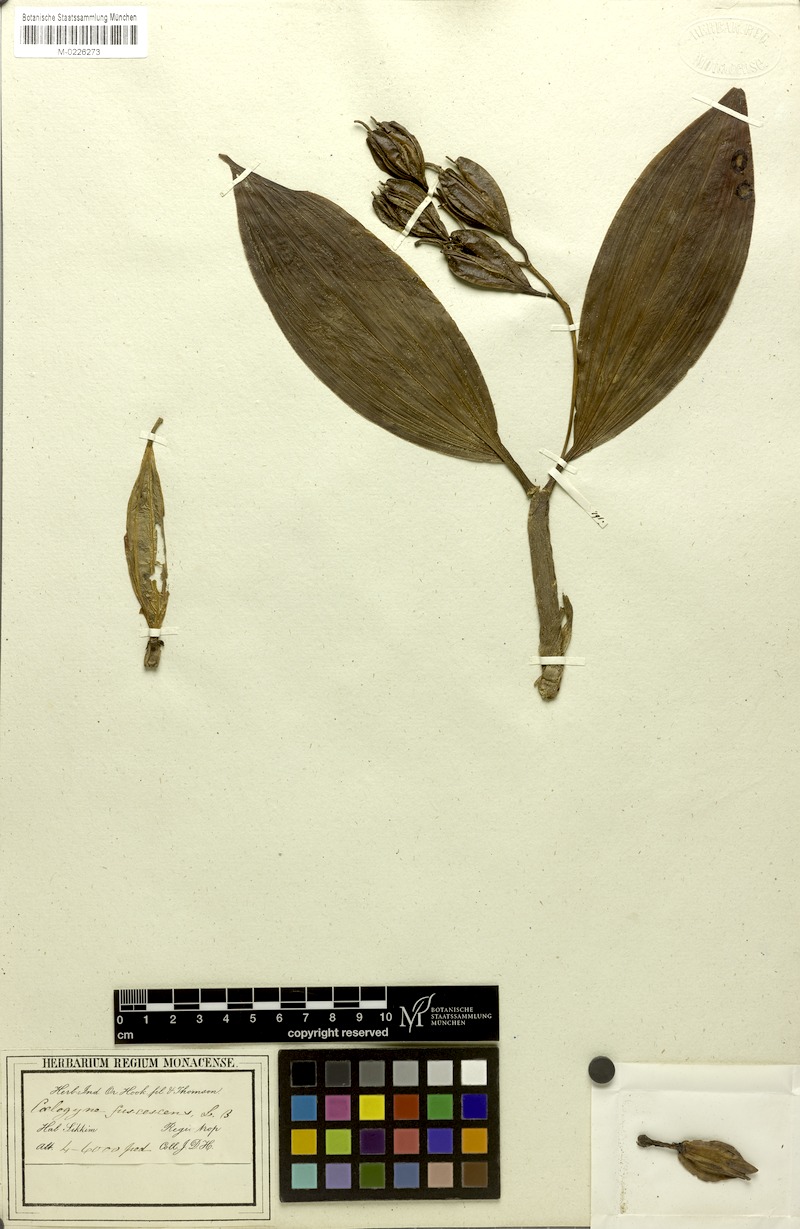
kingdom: Plantae
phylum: Tracheophyta
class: Liliopsida
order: Asparagales
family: Orchidaceae
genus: Coelogyne
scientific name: Coelogyne fuscescens
